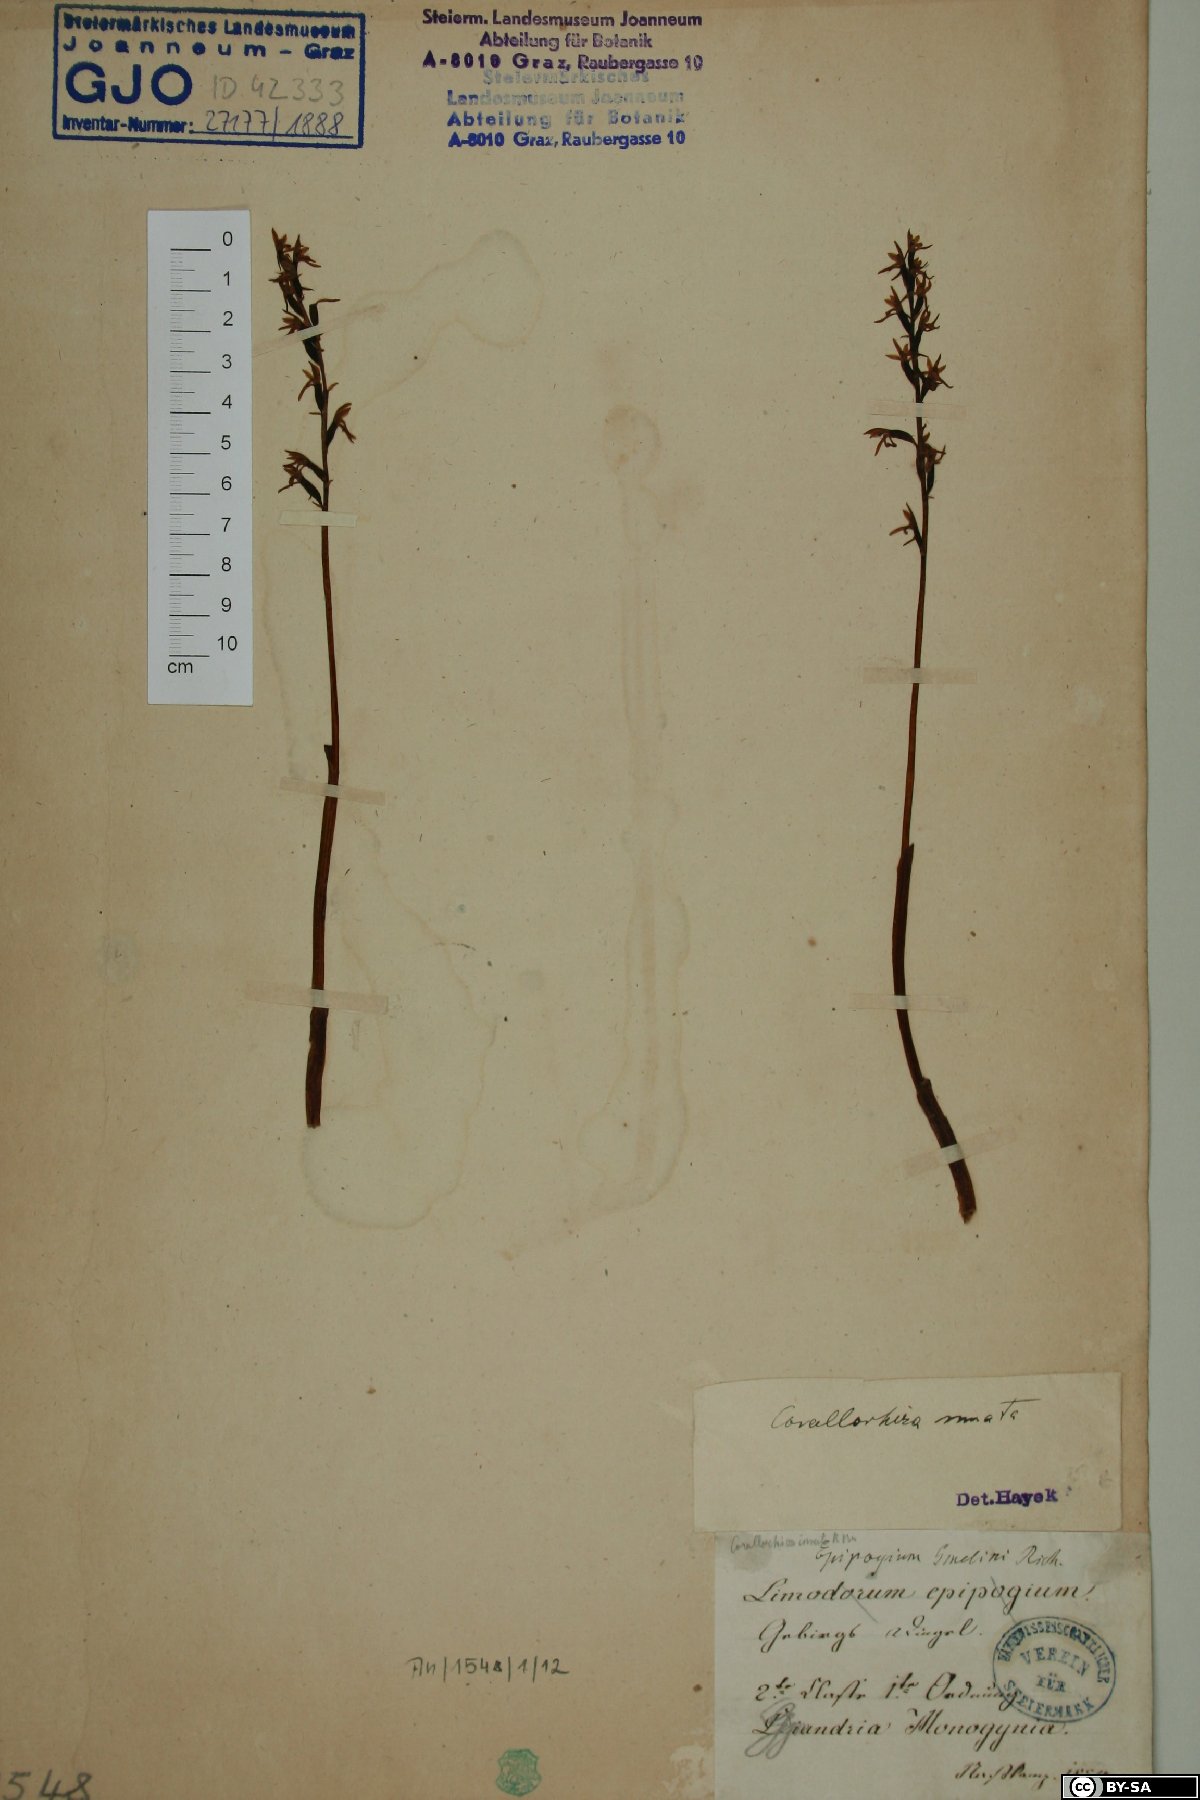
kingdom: Plantae
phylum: Tracheophyta
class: Liliopsida
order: Asparagales
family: Orchidaceae
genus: Corallorhiza
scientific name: Corallorhiza trifida
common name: Yellow coralroot
